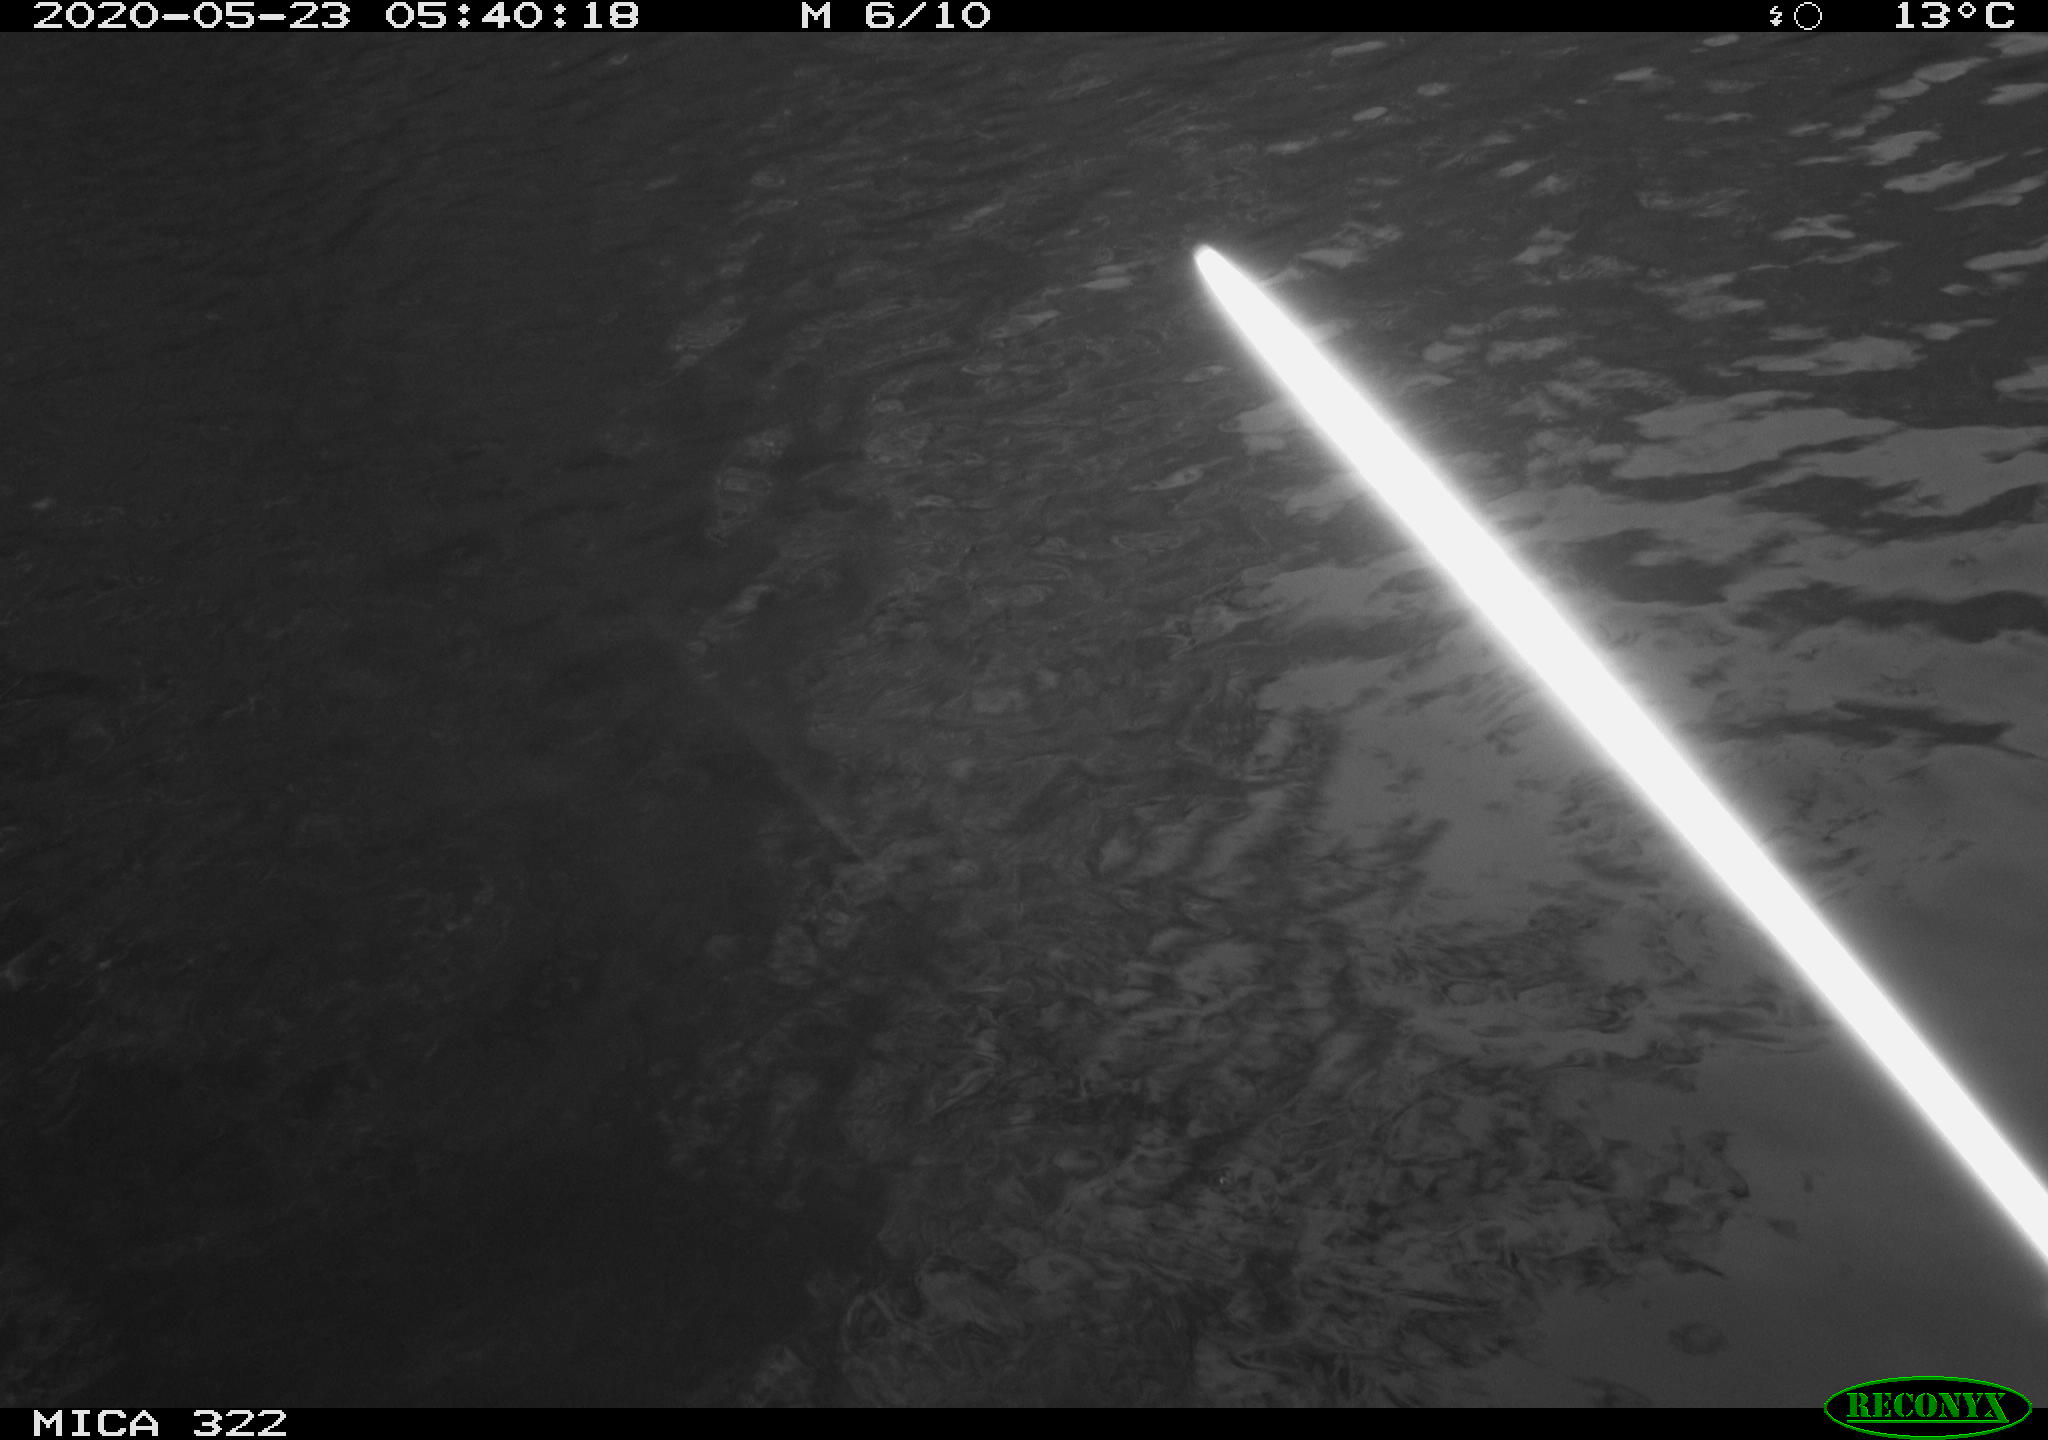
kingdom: Animalia
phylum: Chordata
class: Aves
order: Anseriformes
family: Anatidae
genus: Anas
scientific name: Anas platyrhynchos
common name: Mallard
